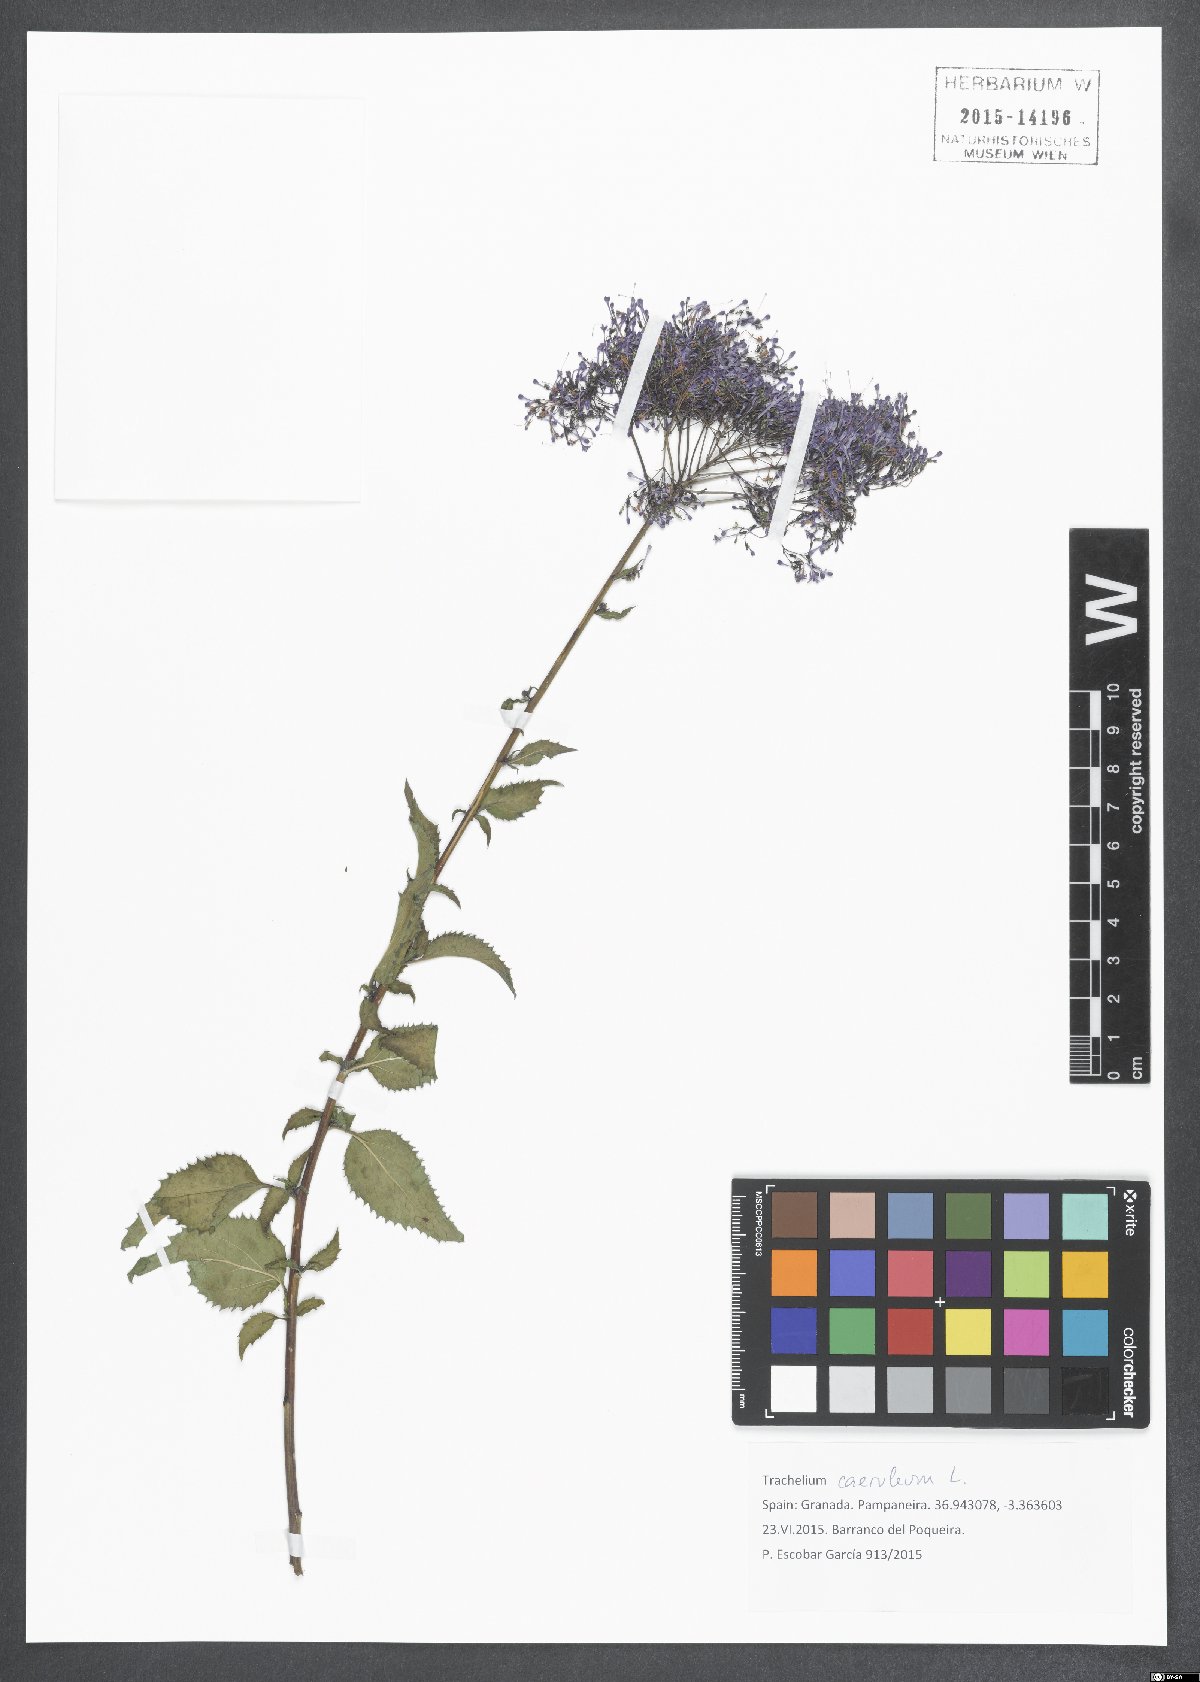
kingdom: Plantae
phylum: Tracheophyta
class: Magnoliopsida
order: Asterales
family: Campanulaceae
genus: Trachelium
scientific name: Trachelium caeruleum
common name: Throatwort
